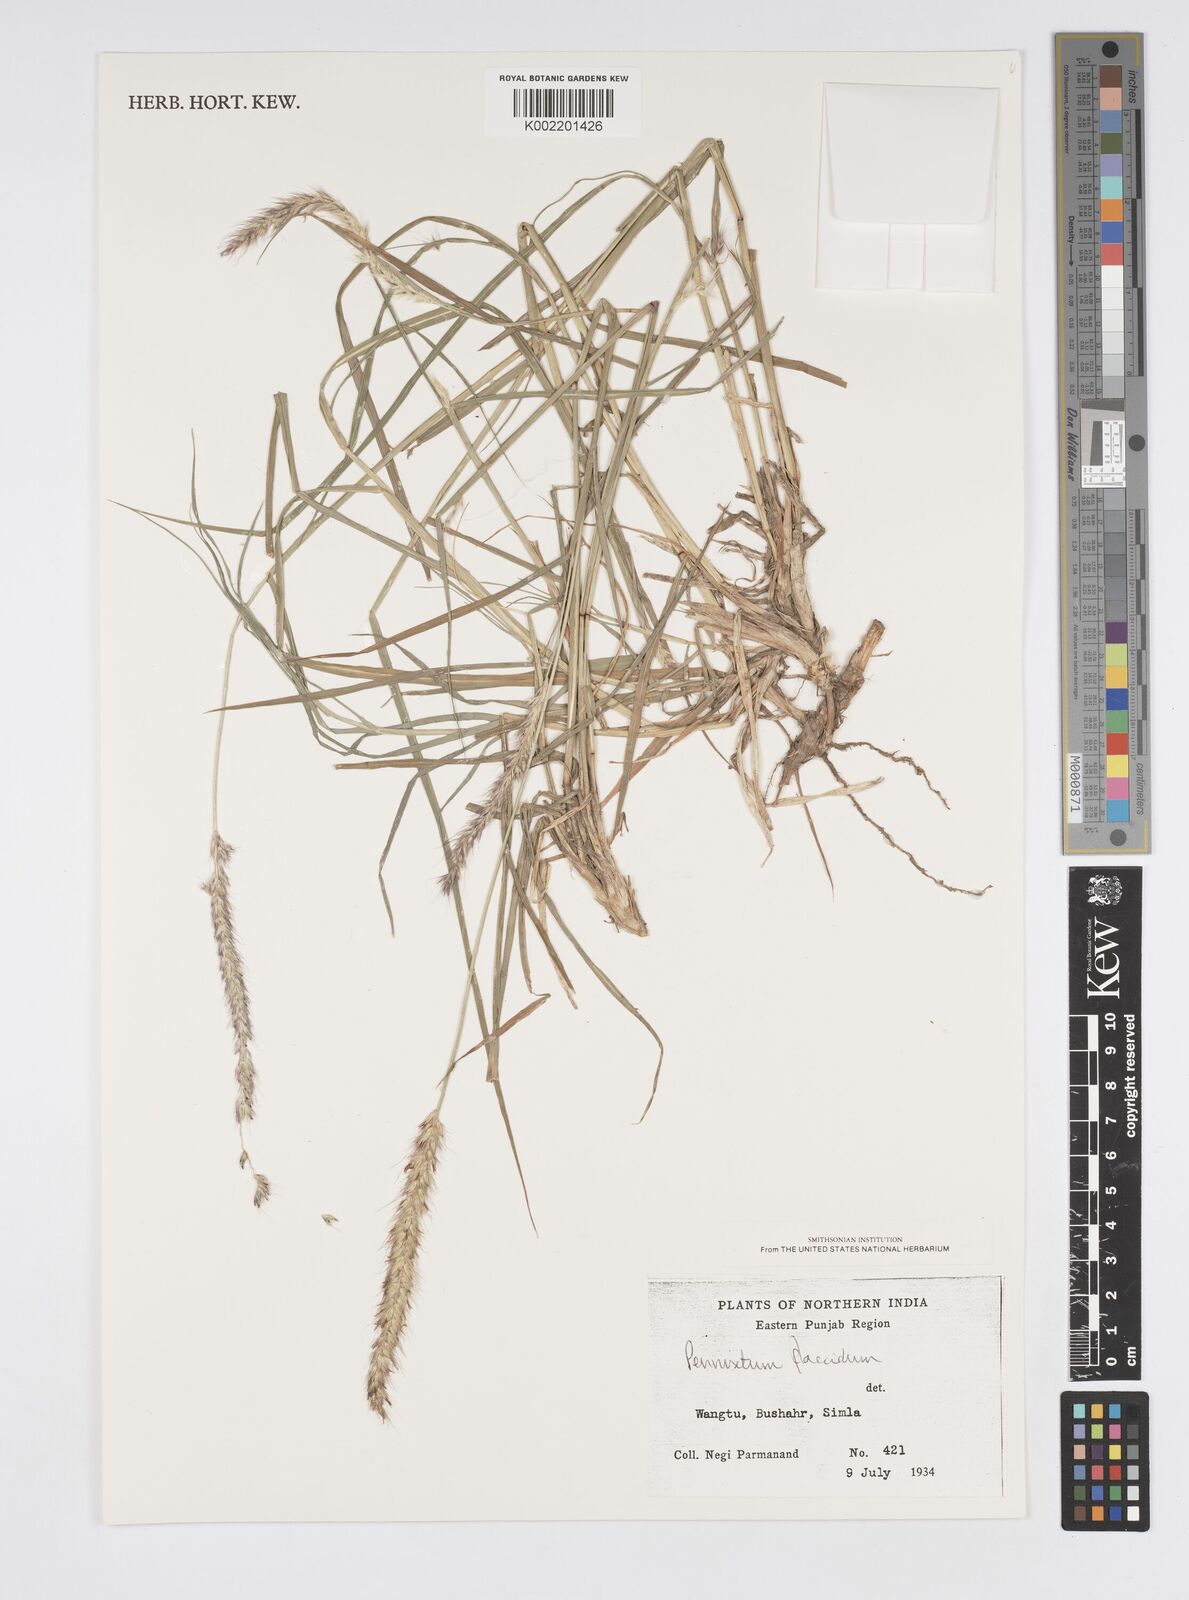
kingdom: Plantae
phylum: Tracheophyta
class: Liliopsida
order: Poales
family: Poaceae
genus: Cenchrus
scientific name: Cenchrus flaccidus
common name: Flaccid grass
